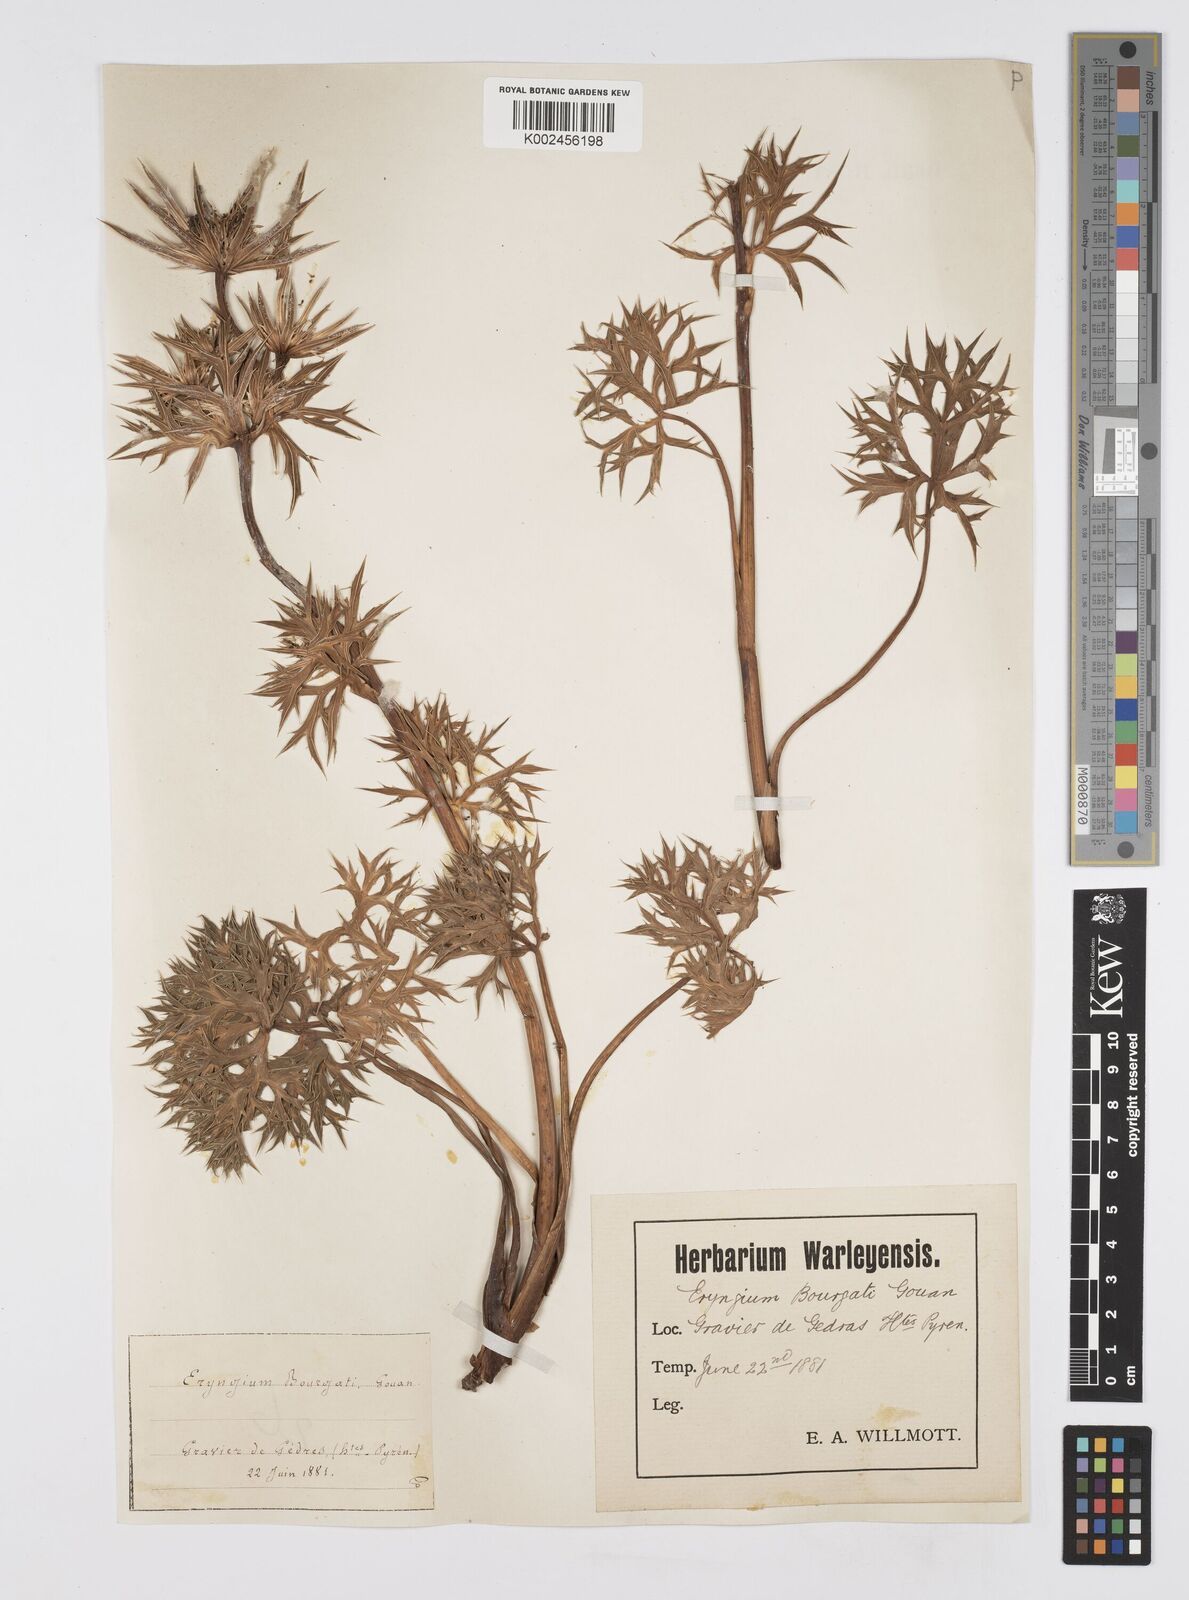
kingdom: Plantae
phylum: Tracheophyta
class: Magnoliopsida
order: Apiales
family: Apiaceae
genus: Eryngium
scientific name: Eryngium bourgatii
